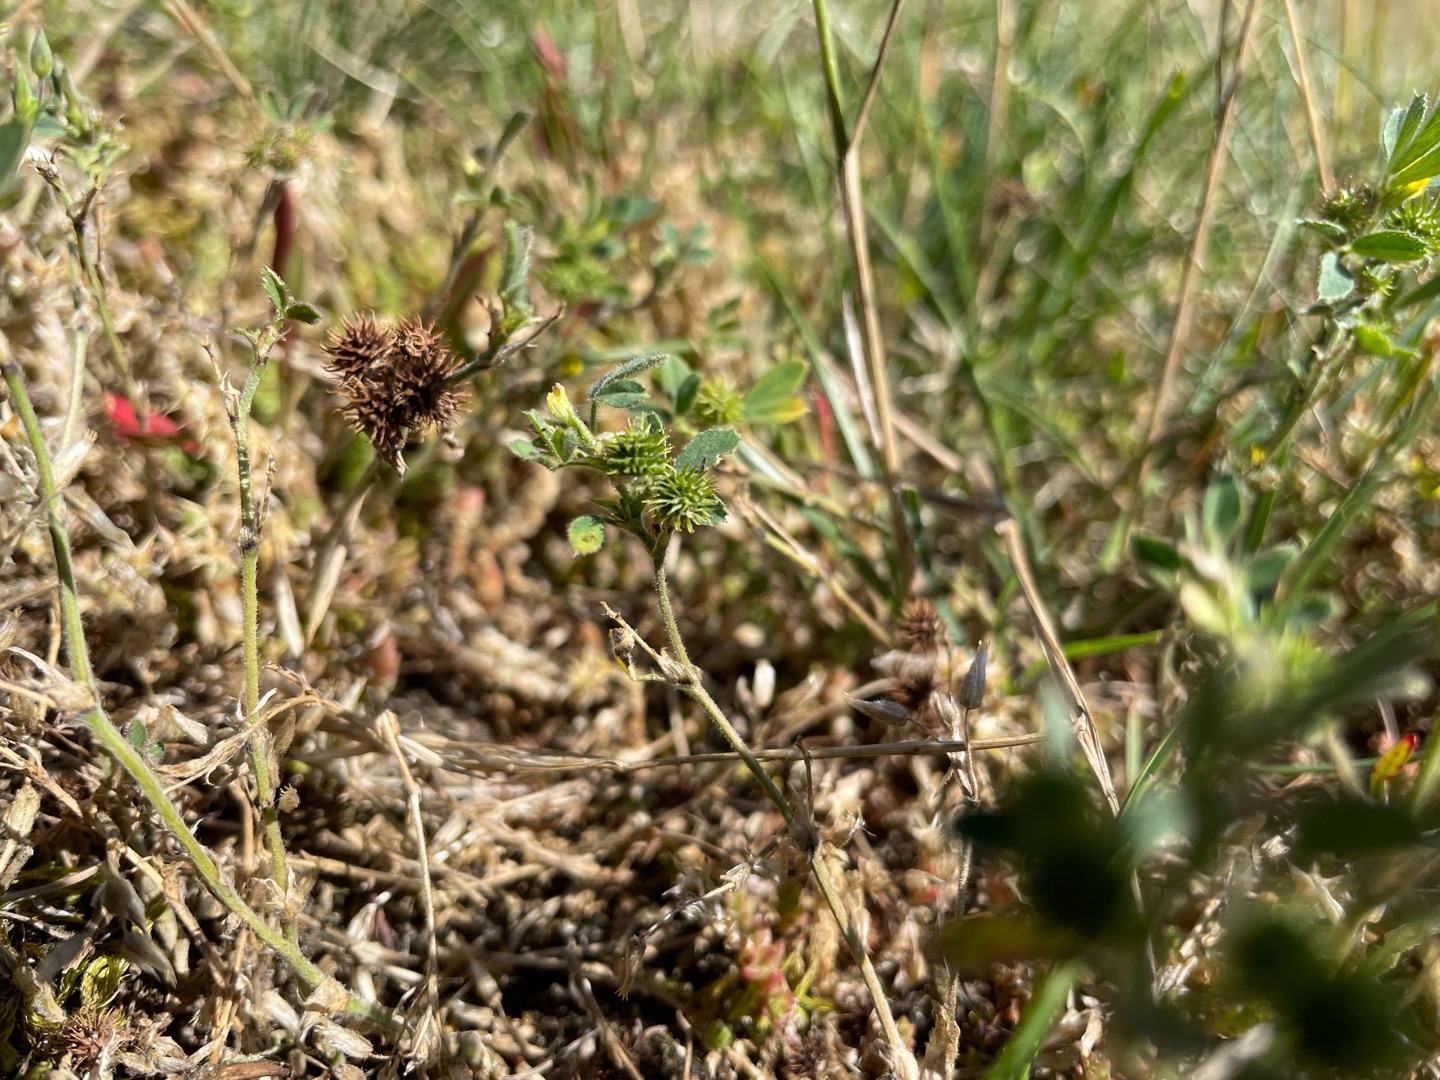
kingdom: Plantae
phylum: Tracheophyta
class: Magnoliopsida
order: Fabales
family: Fabaceae
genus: Medicago
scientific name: Medicago minima
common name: Liden sneglebælg
